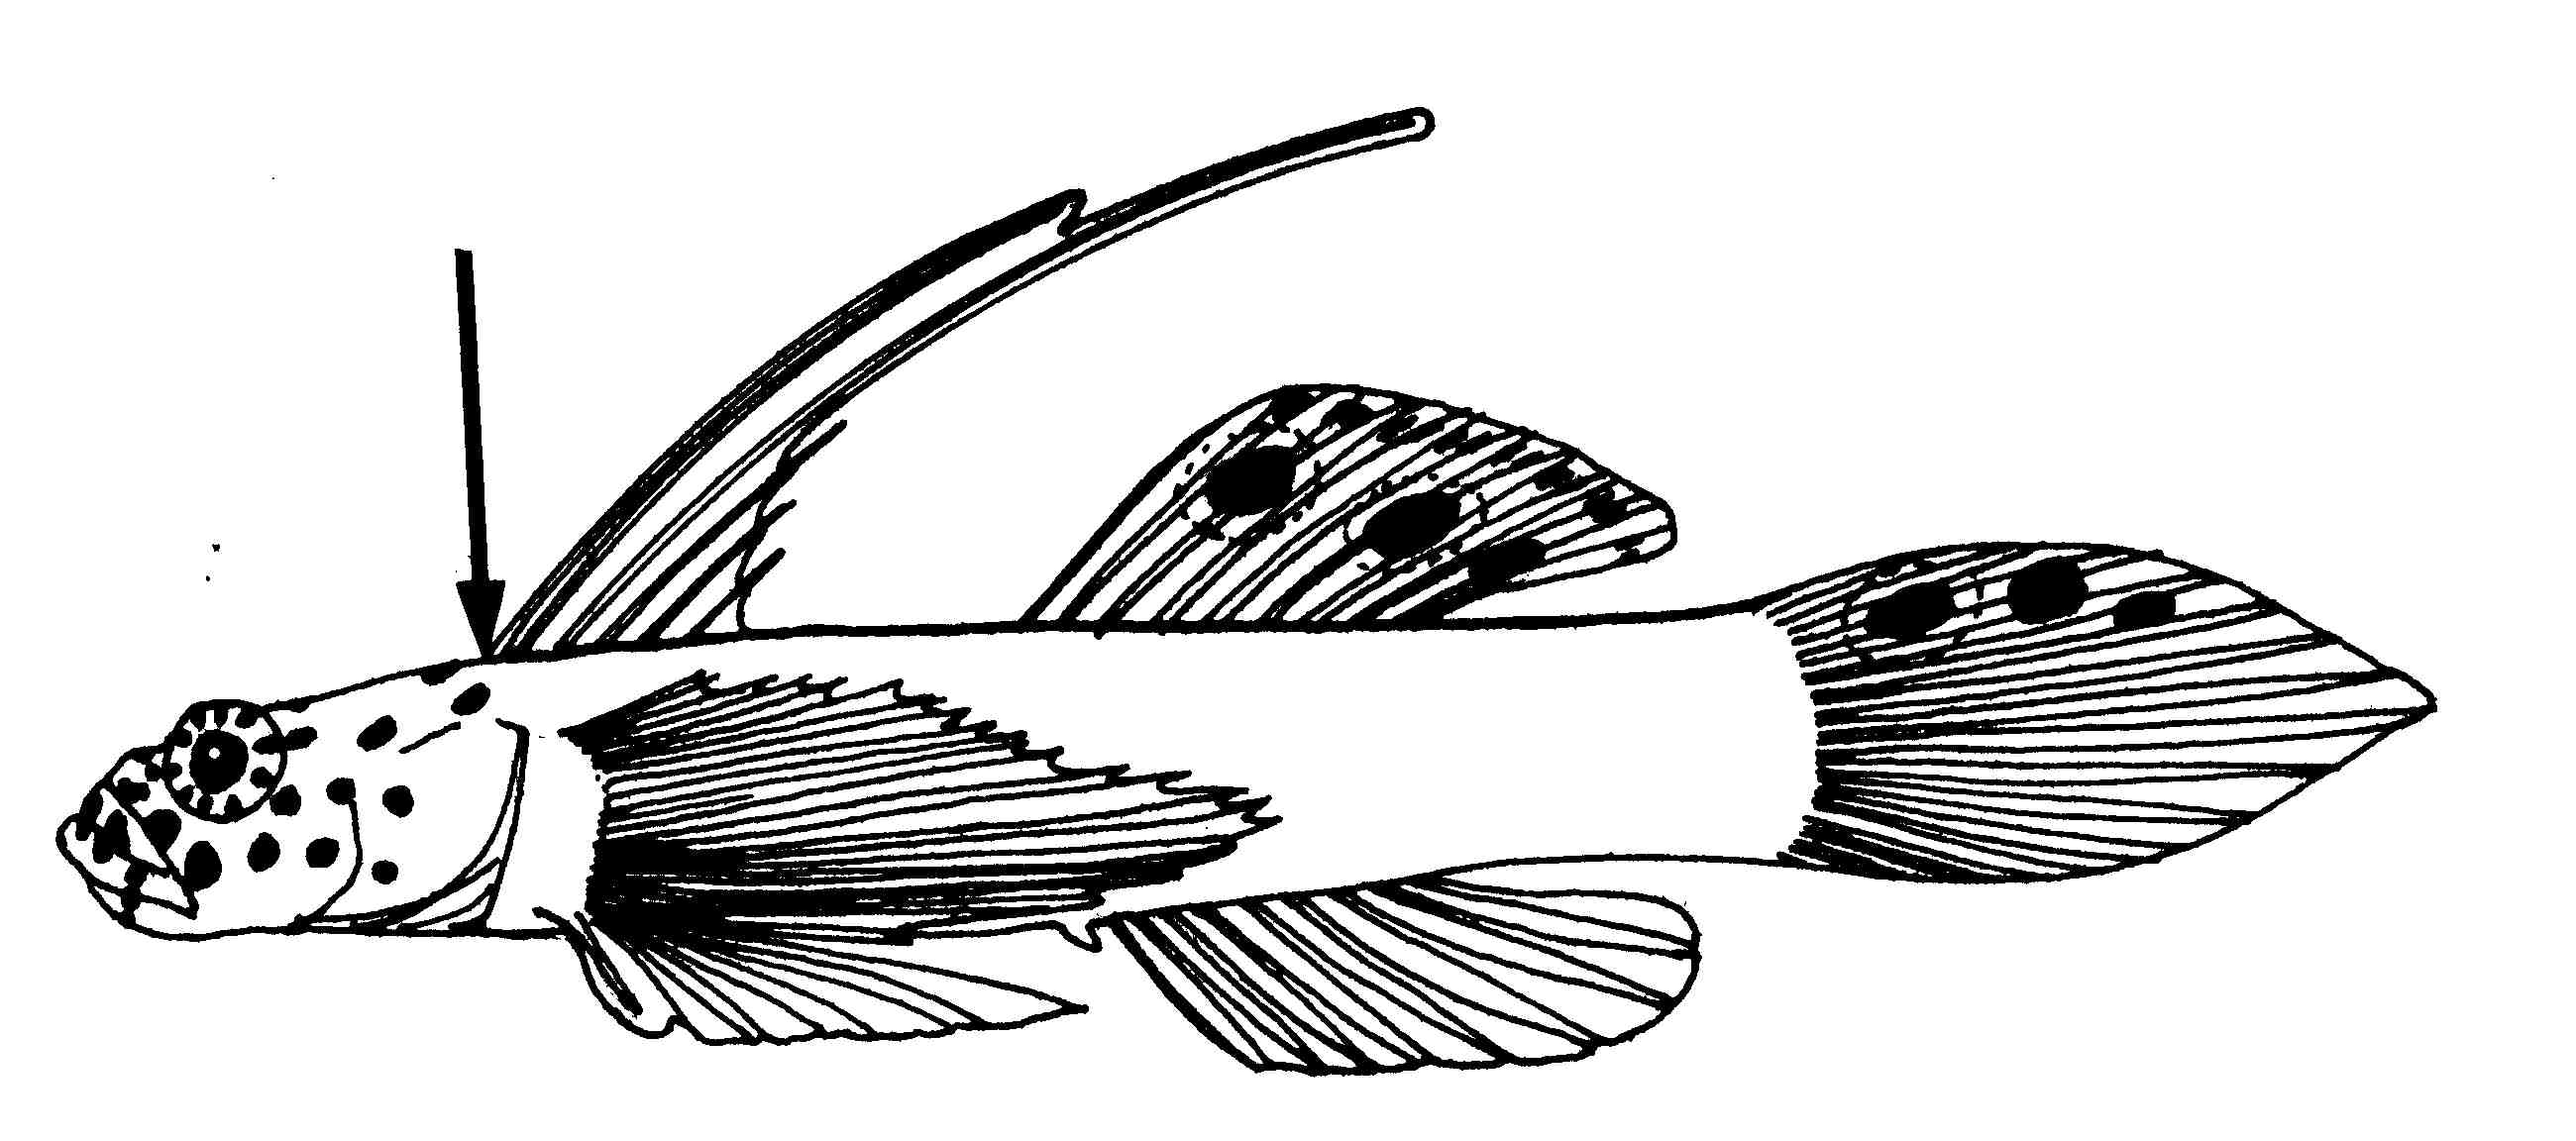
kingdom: Animalia
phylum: Chordata
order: Perciformes
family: Gobiidae
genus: Discordipinna
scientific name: Discordipinna griessingeri
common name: Flame goby
